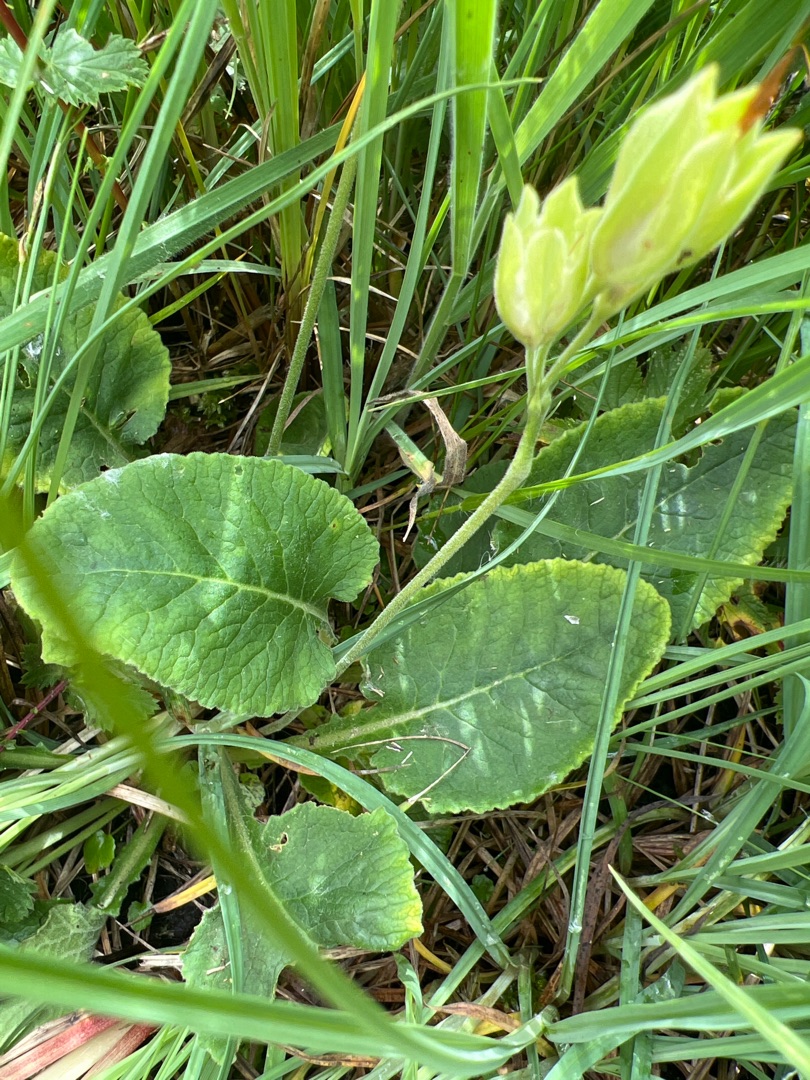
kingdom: Plantae
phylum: Tracheophyta
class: Magnoliopsida
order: Ericales
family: Primulaceae
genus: Primula
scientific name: Primula veris
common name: Hulkravet kodriver
